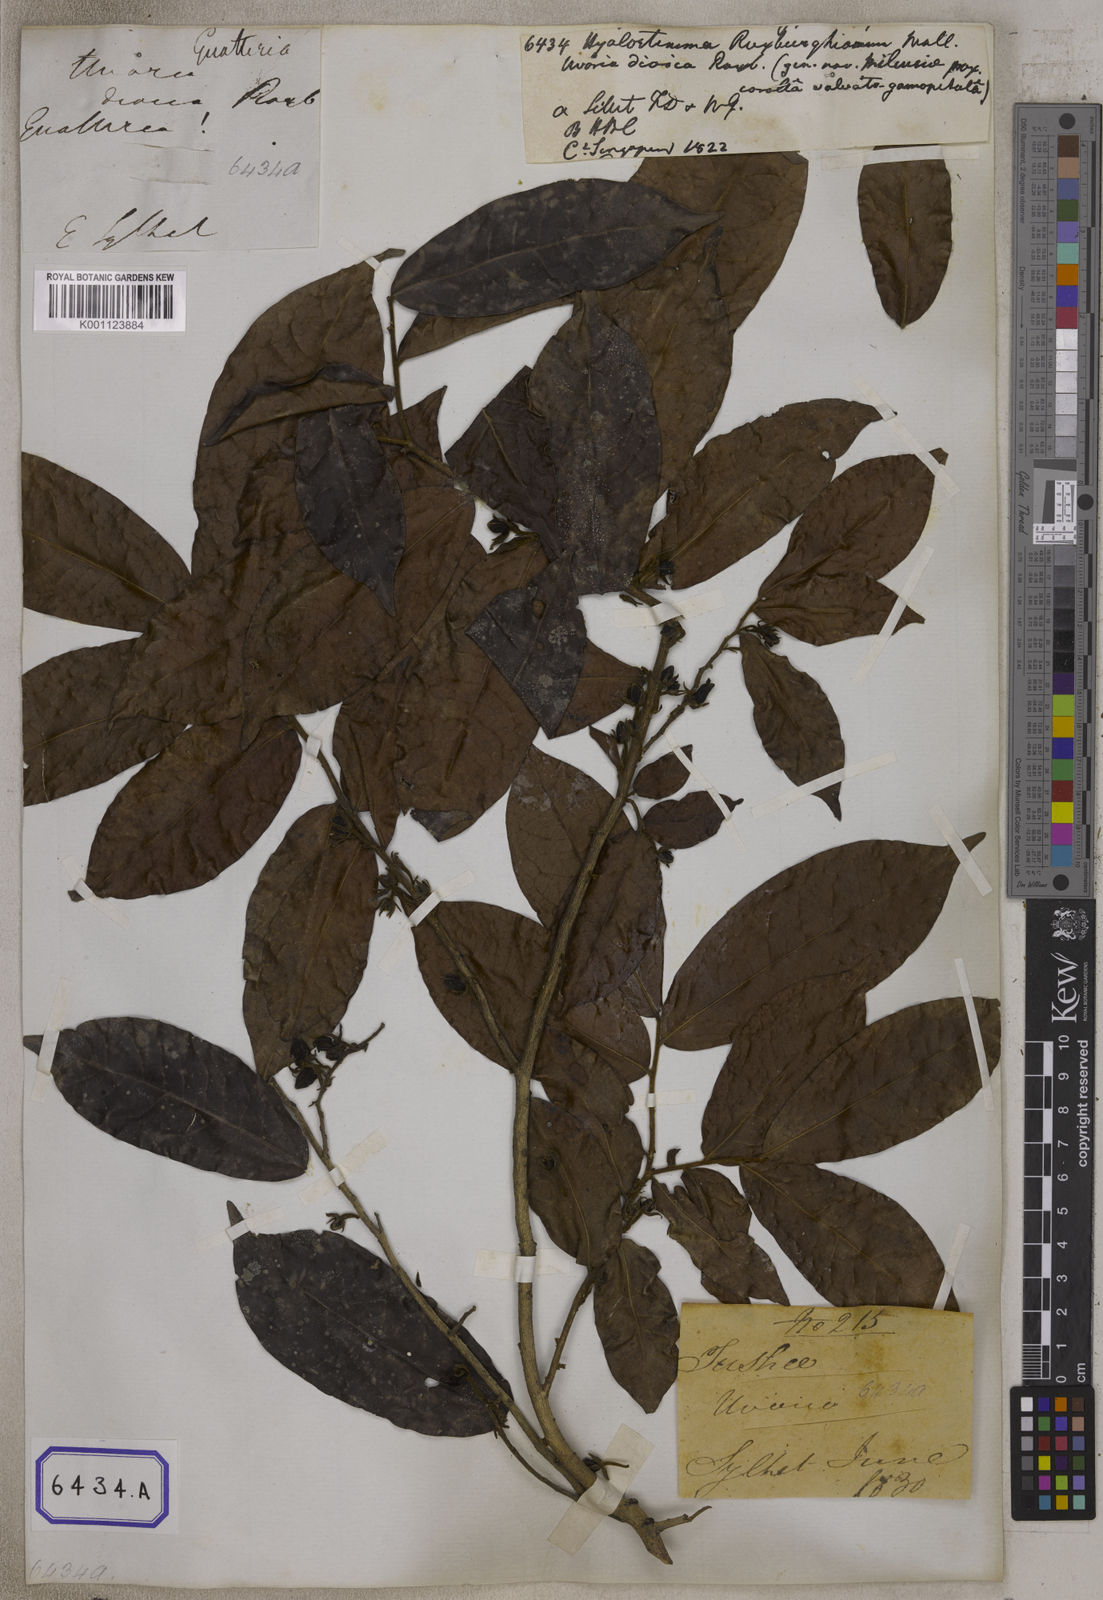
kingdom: Plantae
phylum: Tracheophyta
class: Magnoliopsida
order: Magnoliales
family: Annonaceae
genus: Hyalostemma
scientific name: Hyalostemma
